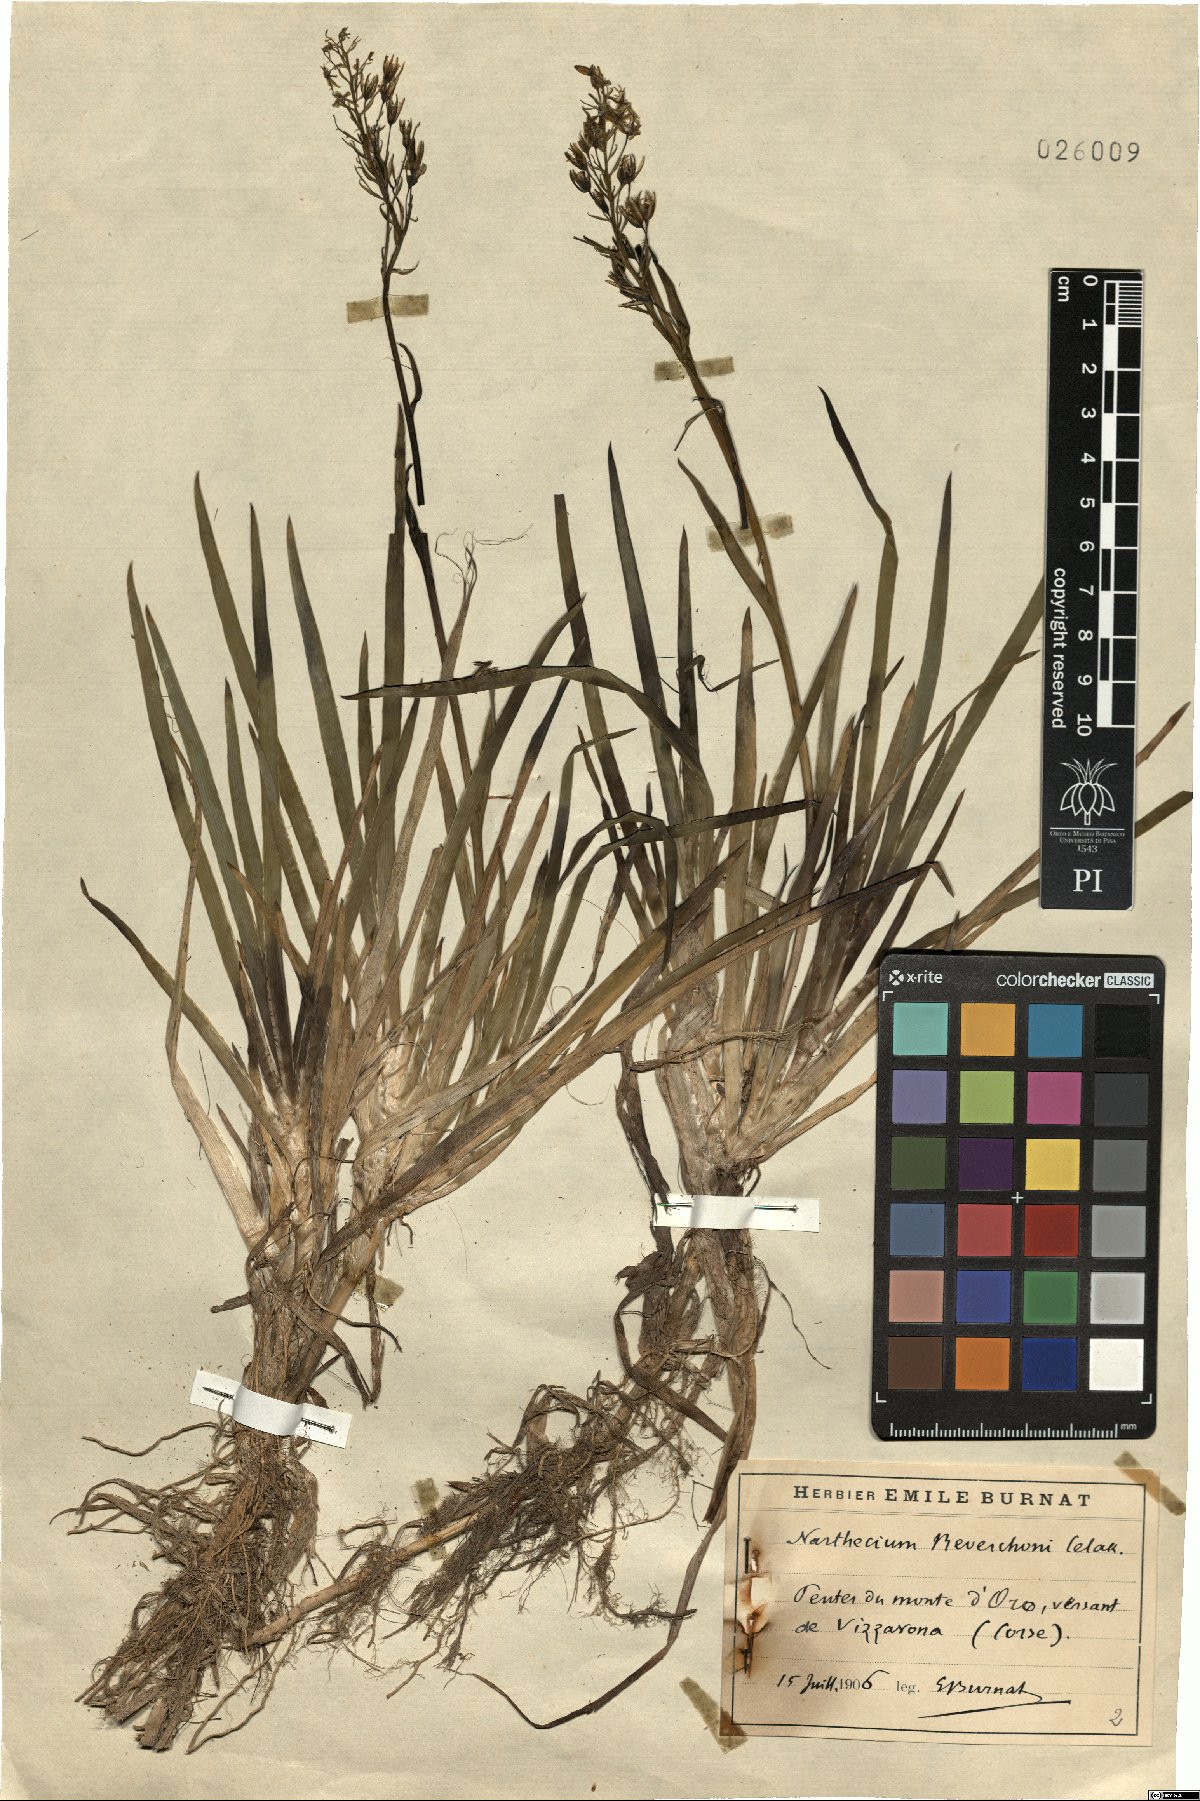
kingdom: Plantae
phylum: Tracheophyta
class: Liliopsida
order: Dioscoreales
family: Nartheciaceae
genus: Narthecium
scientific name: Narthecium reverchonii
